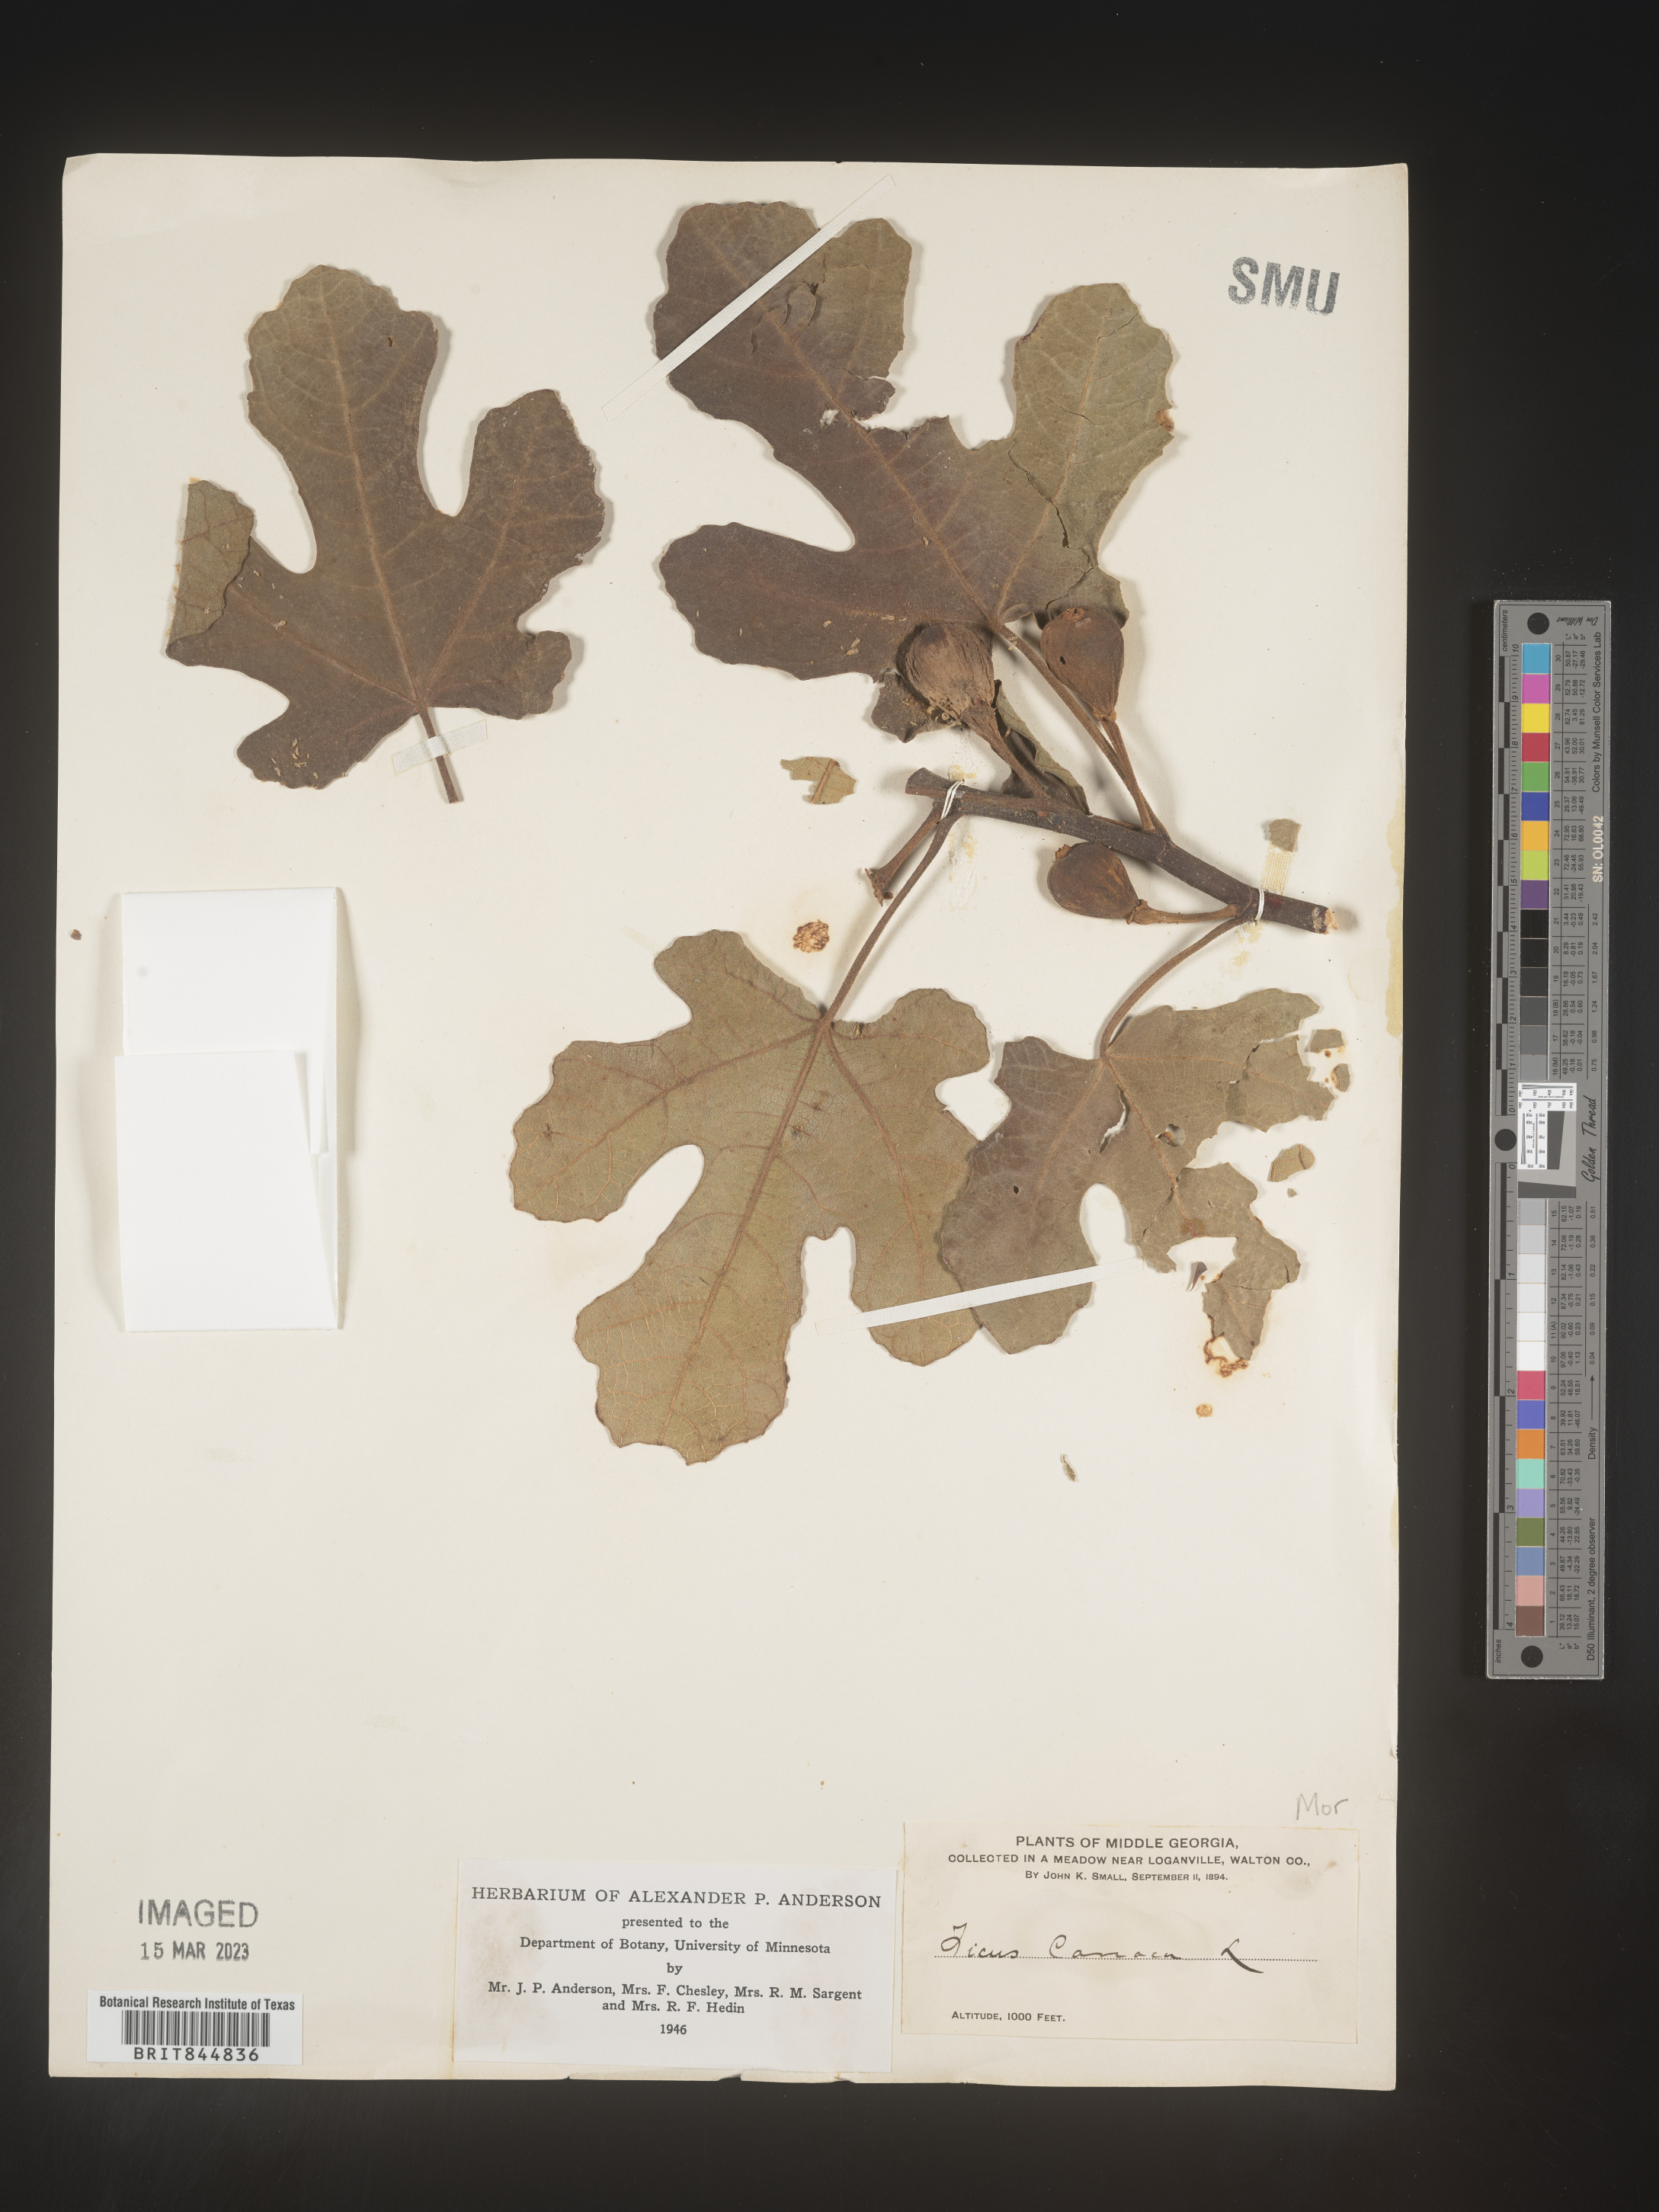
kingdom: Plantae
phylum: Tracheophyta
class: Magnoliopsida
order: Rosales
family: Moraceae
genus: Ficus
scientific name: Ficus
